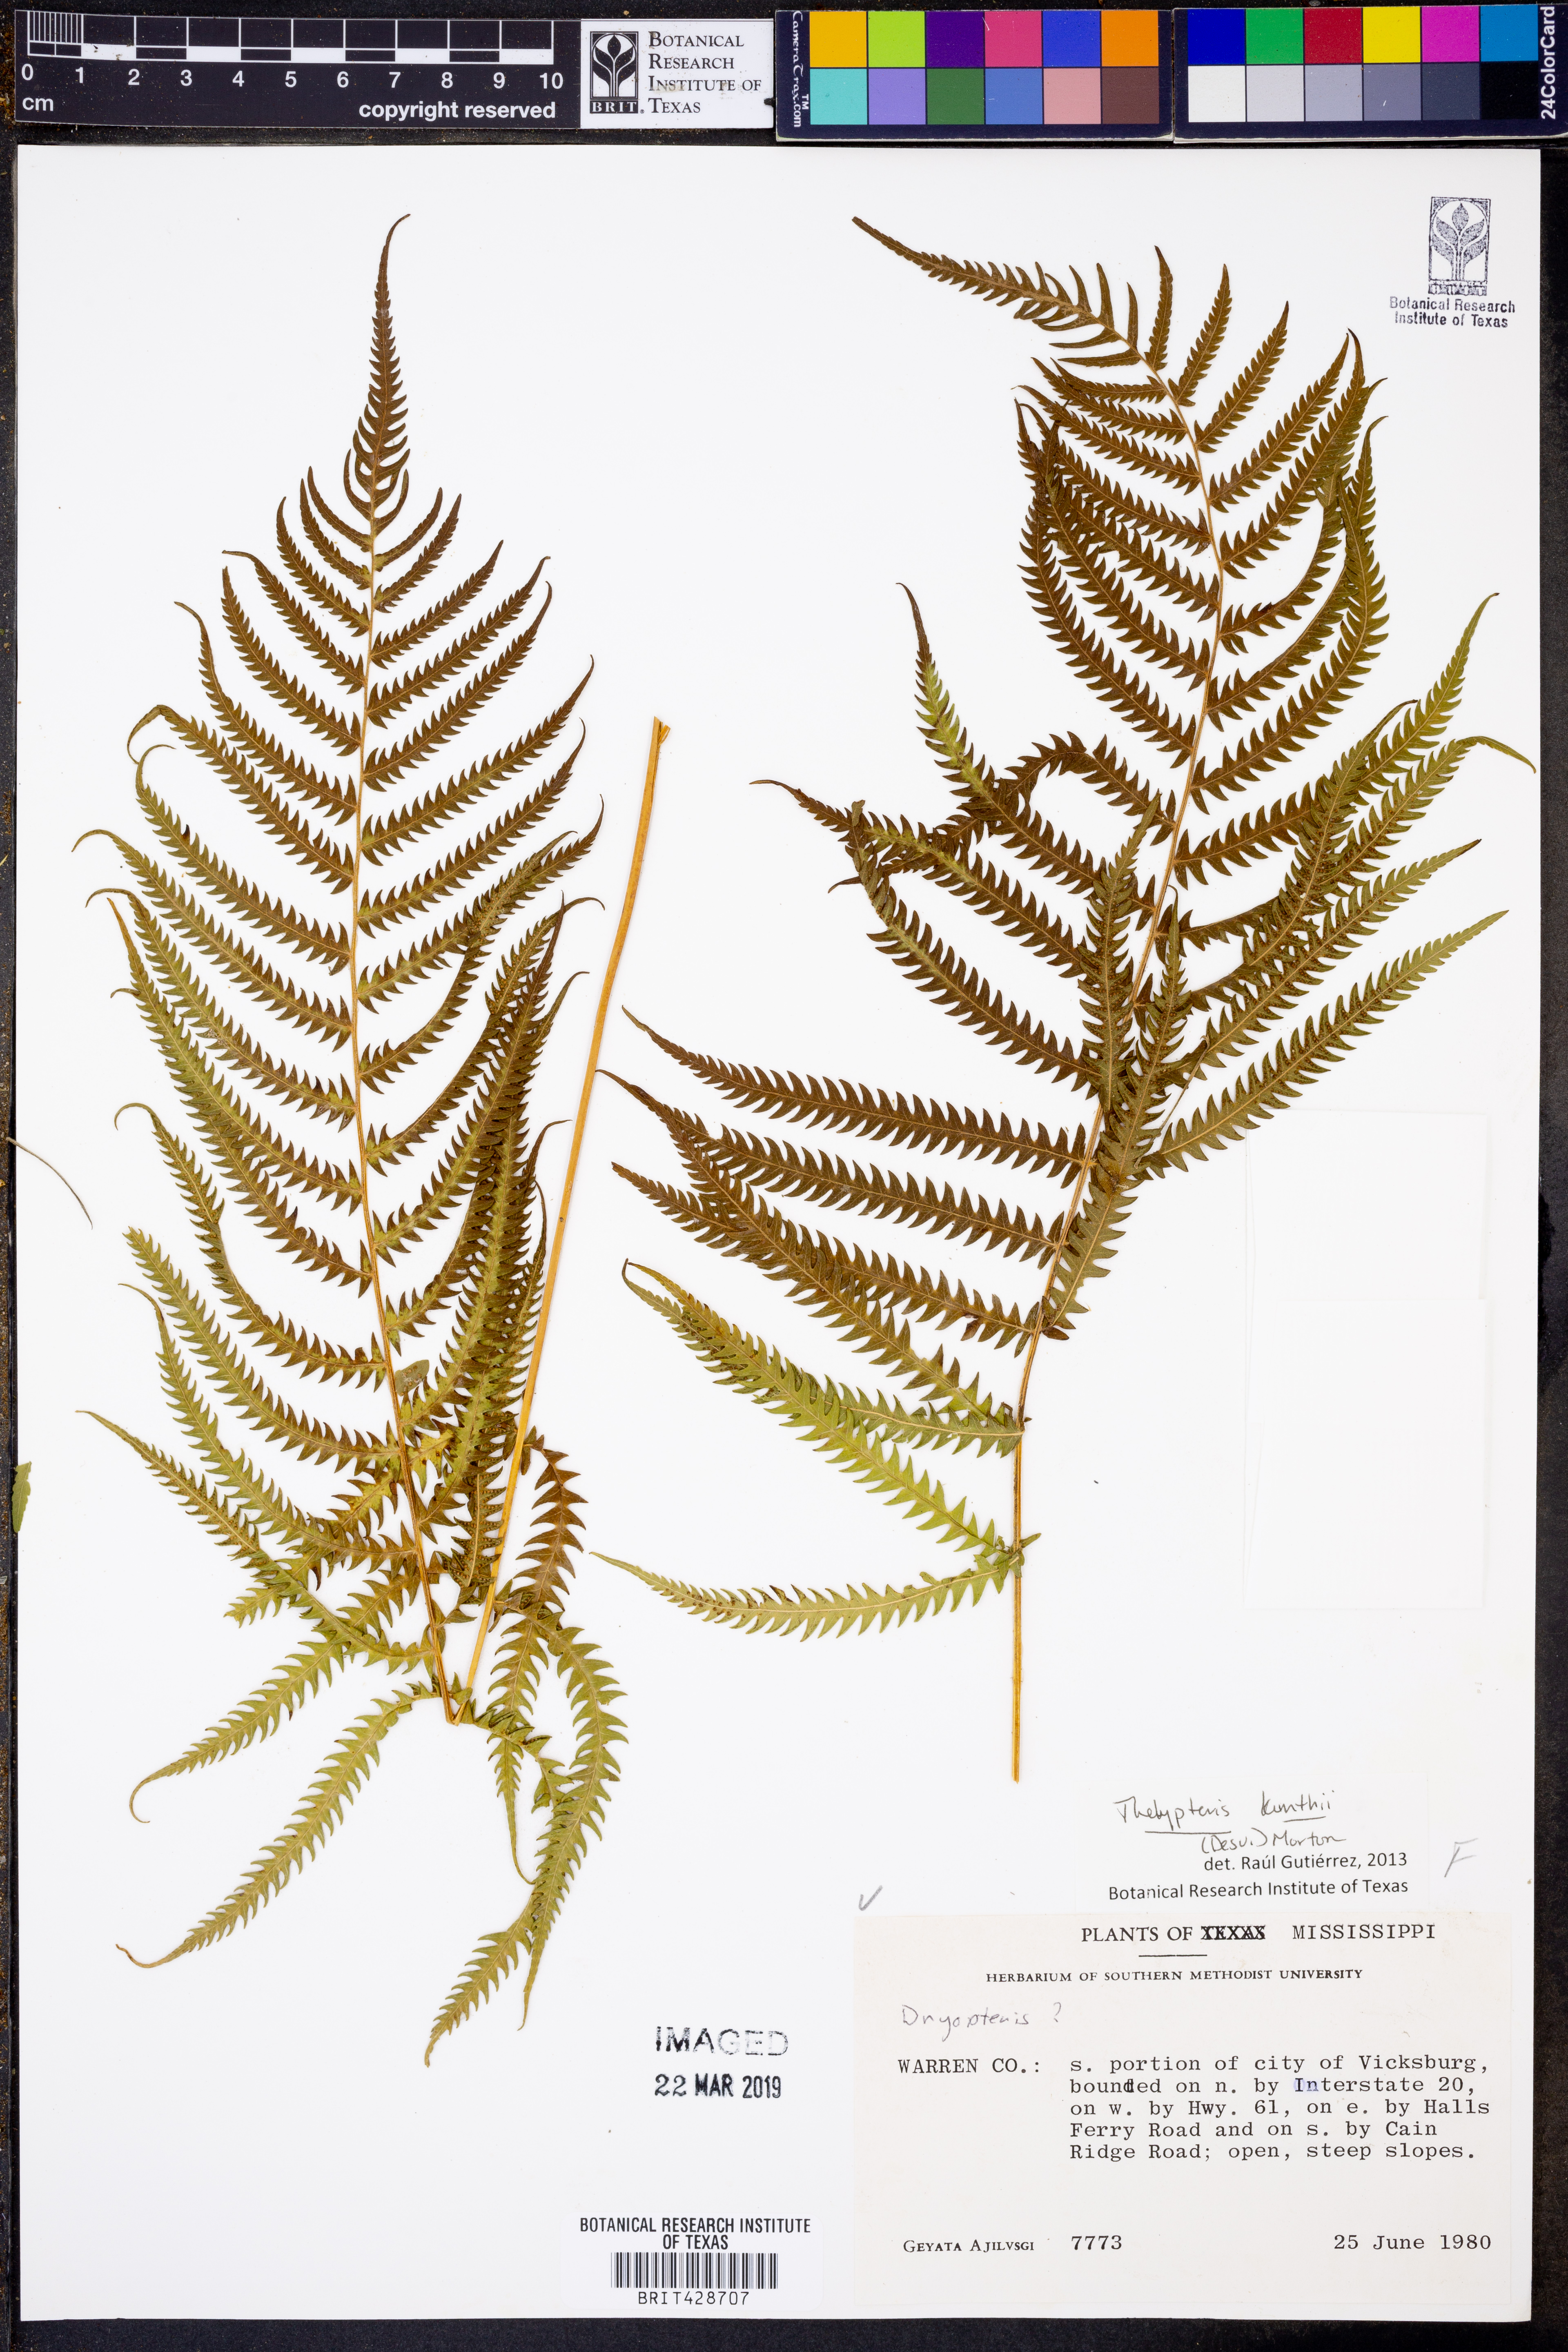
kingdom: Plantae
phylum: Tracheophyta
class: Polypodiopsida
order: Polypodiales
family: Thelypteridaceae
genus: Pelazoneuron
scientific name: Pelazoneuron kunthii
